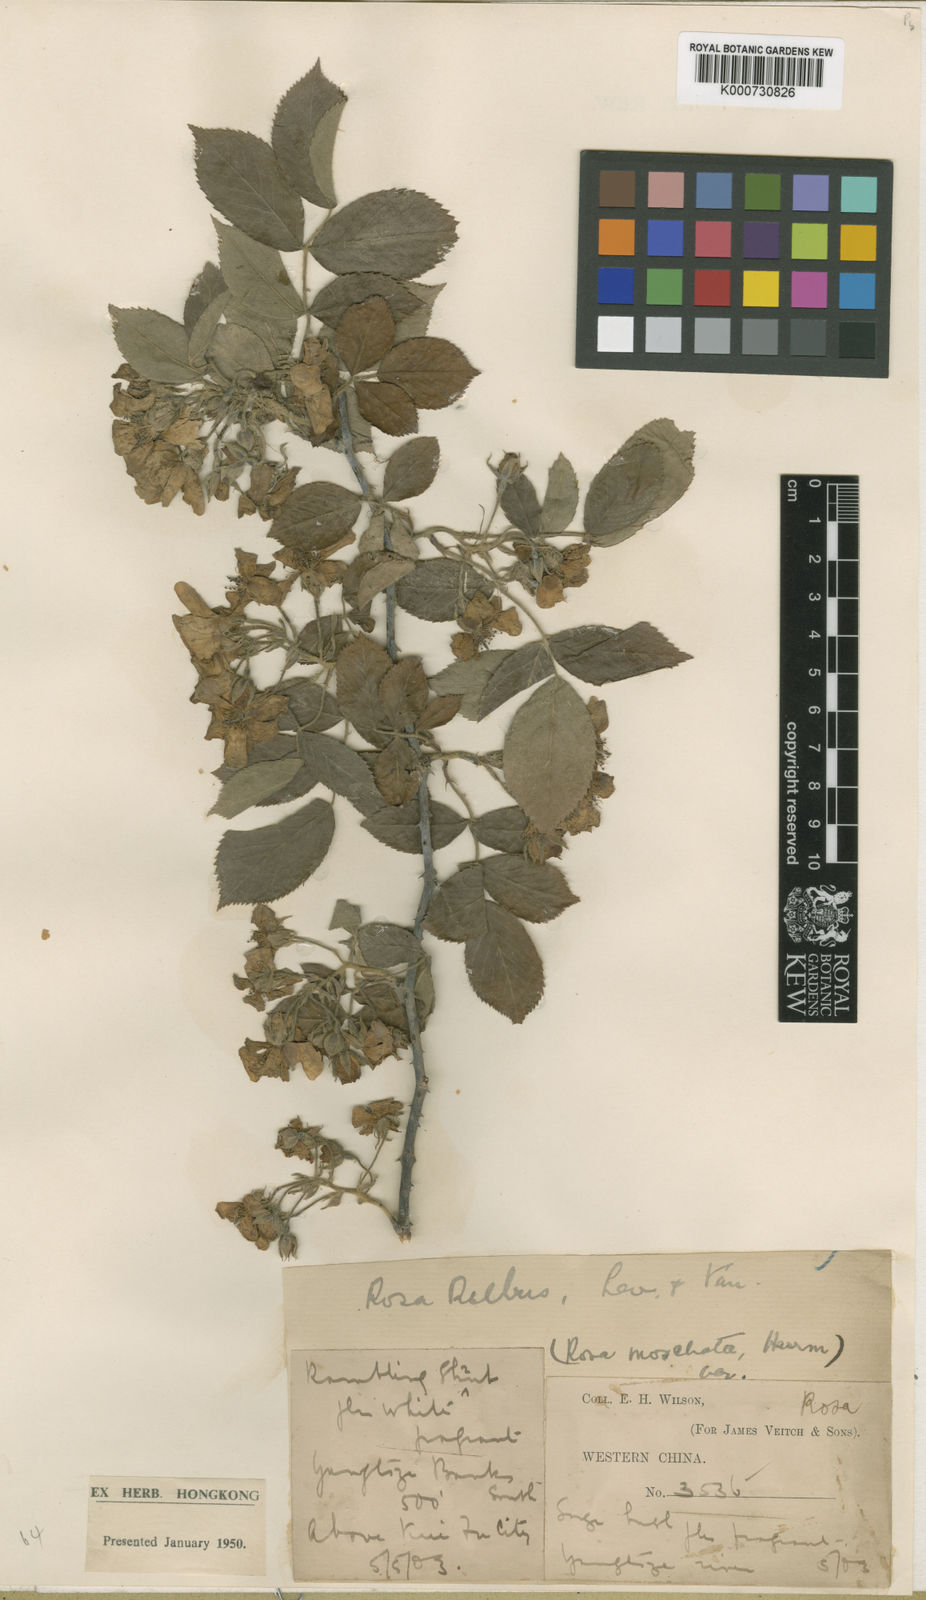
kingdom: Plantae
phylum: Tracheophyta
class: Magnoliopsida
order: Rosales
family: Rosaceae
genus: Rosa
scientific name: Rosa rubus
